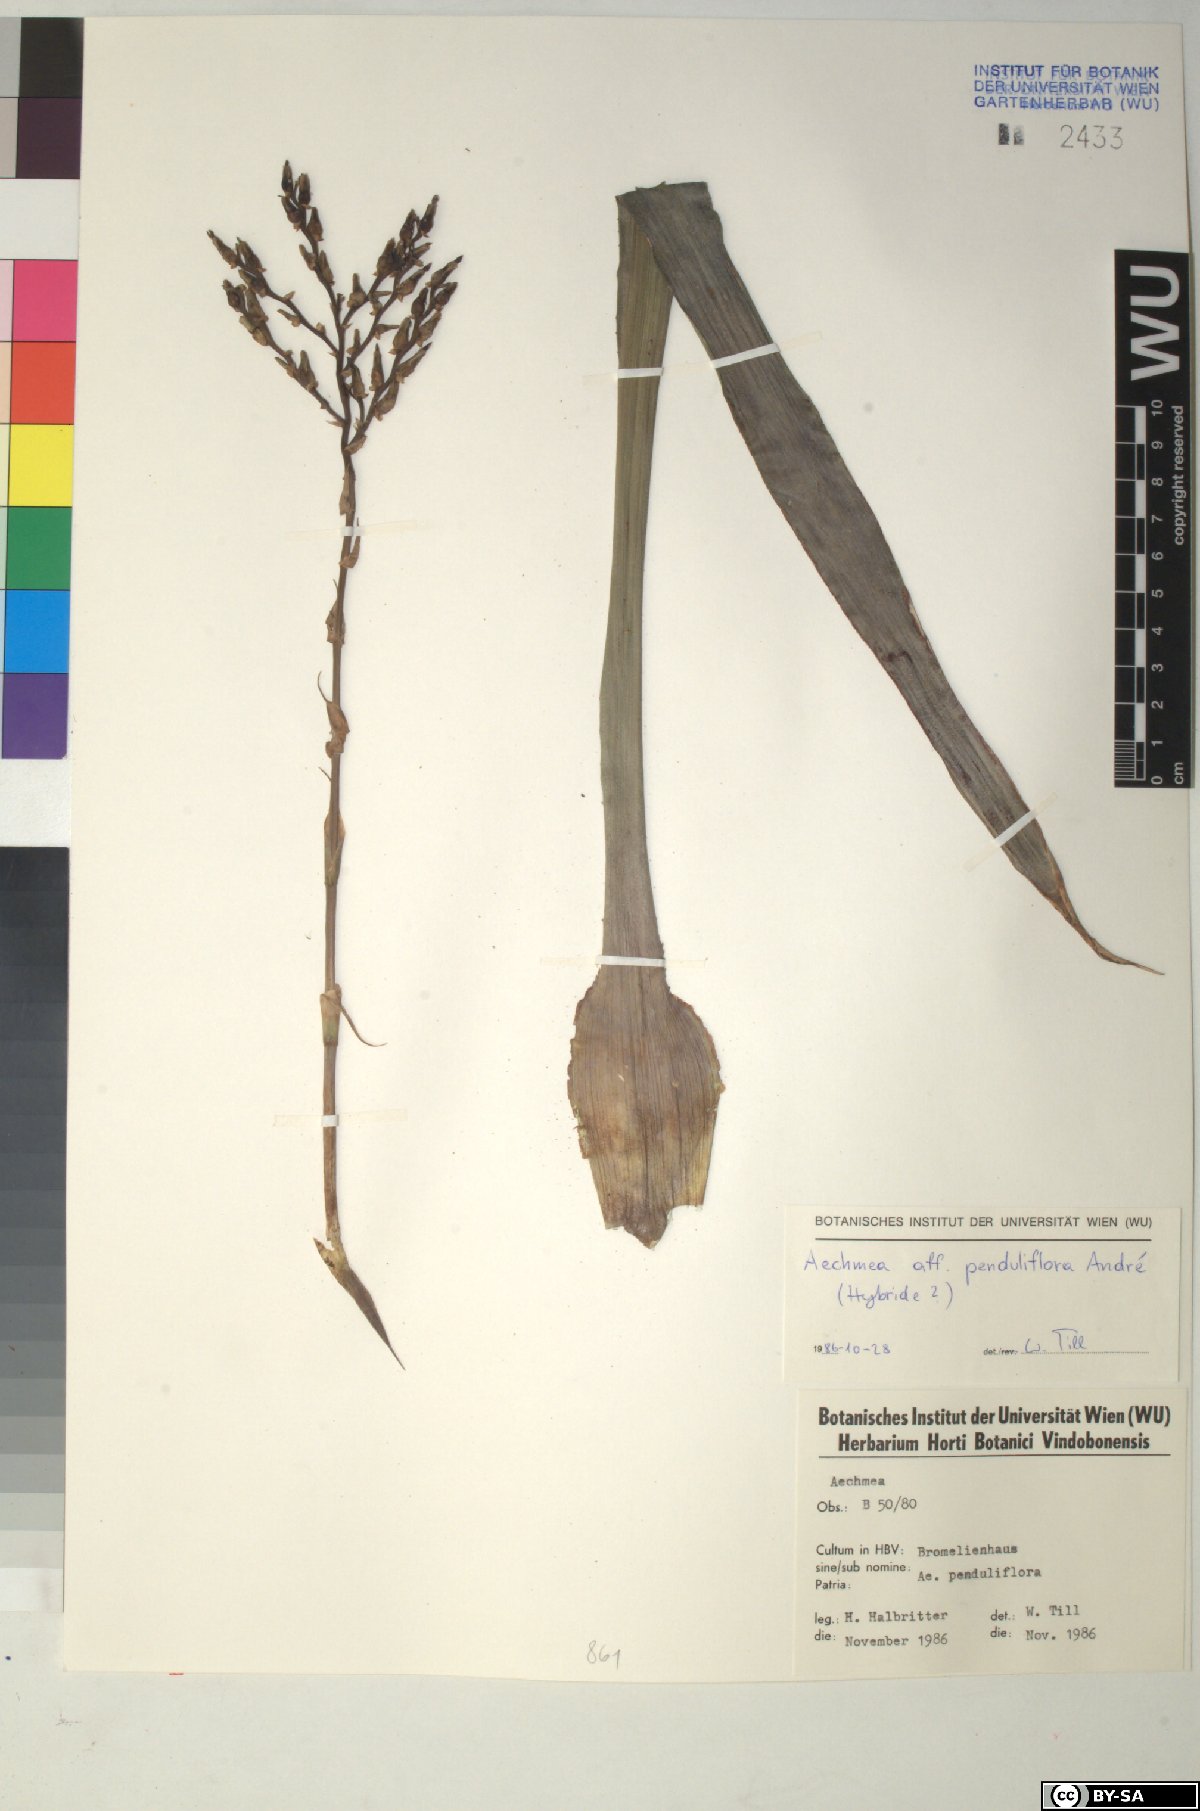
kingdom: Plantae
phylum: Tracheophyta
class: Liliopsida
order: Poales
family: Bromeliaceae
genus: Aechmea
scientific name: Aechmea penduliflora
